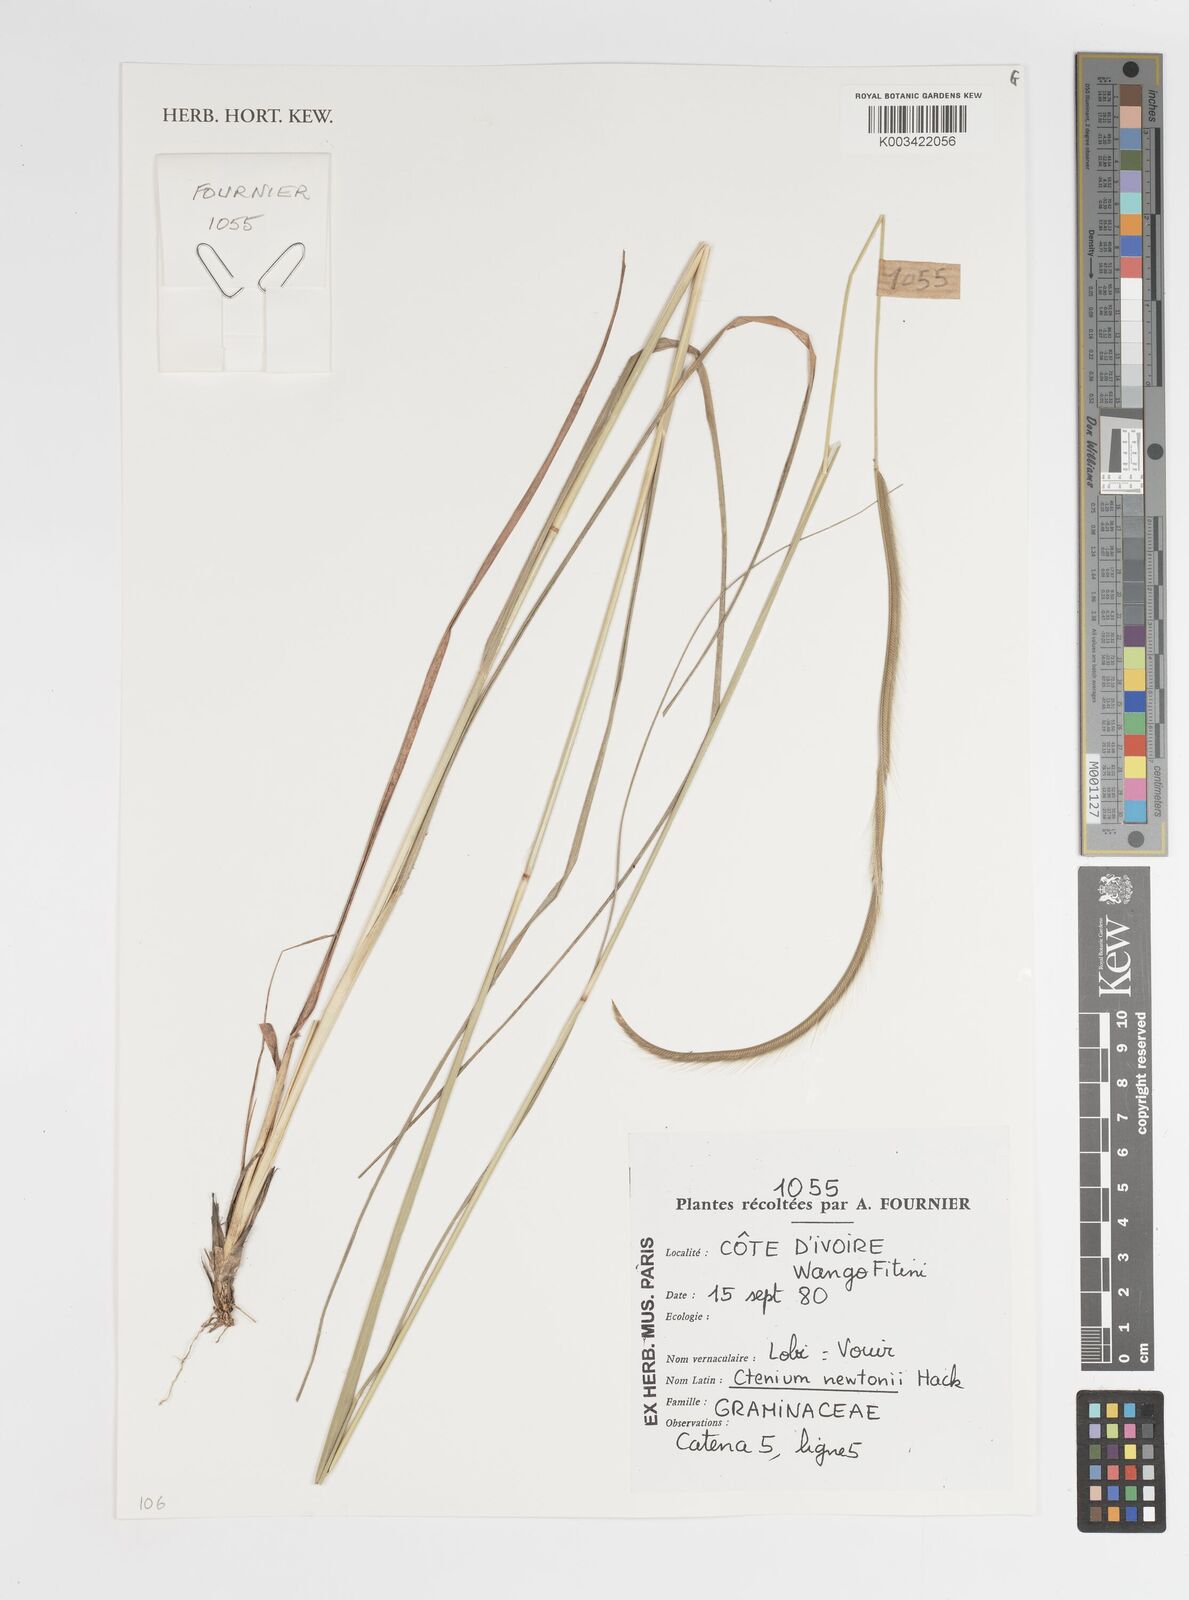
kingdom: Plantae
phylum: Tracheophyta
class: Liliopsida
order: Poales
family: Poaceae
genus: Ctenium
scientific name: Ctenium newtonii
